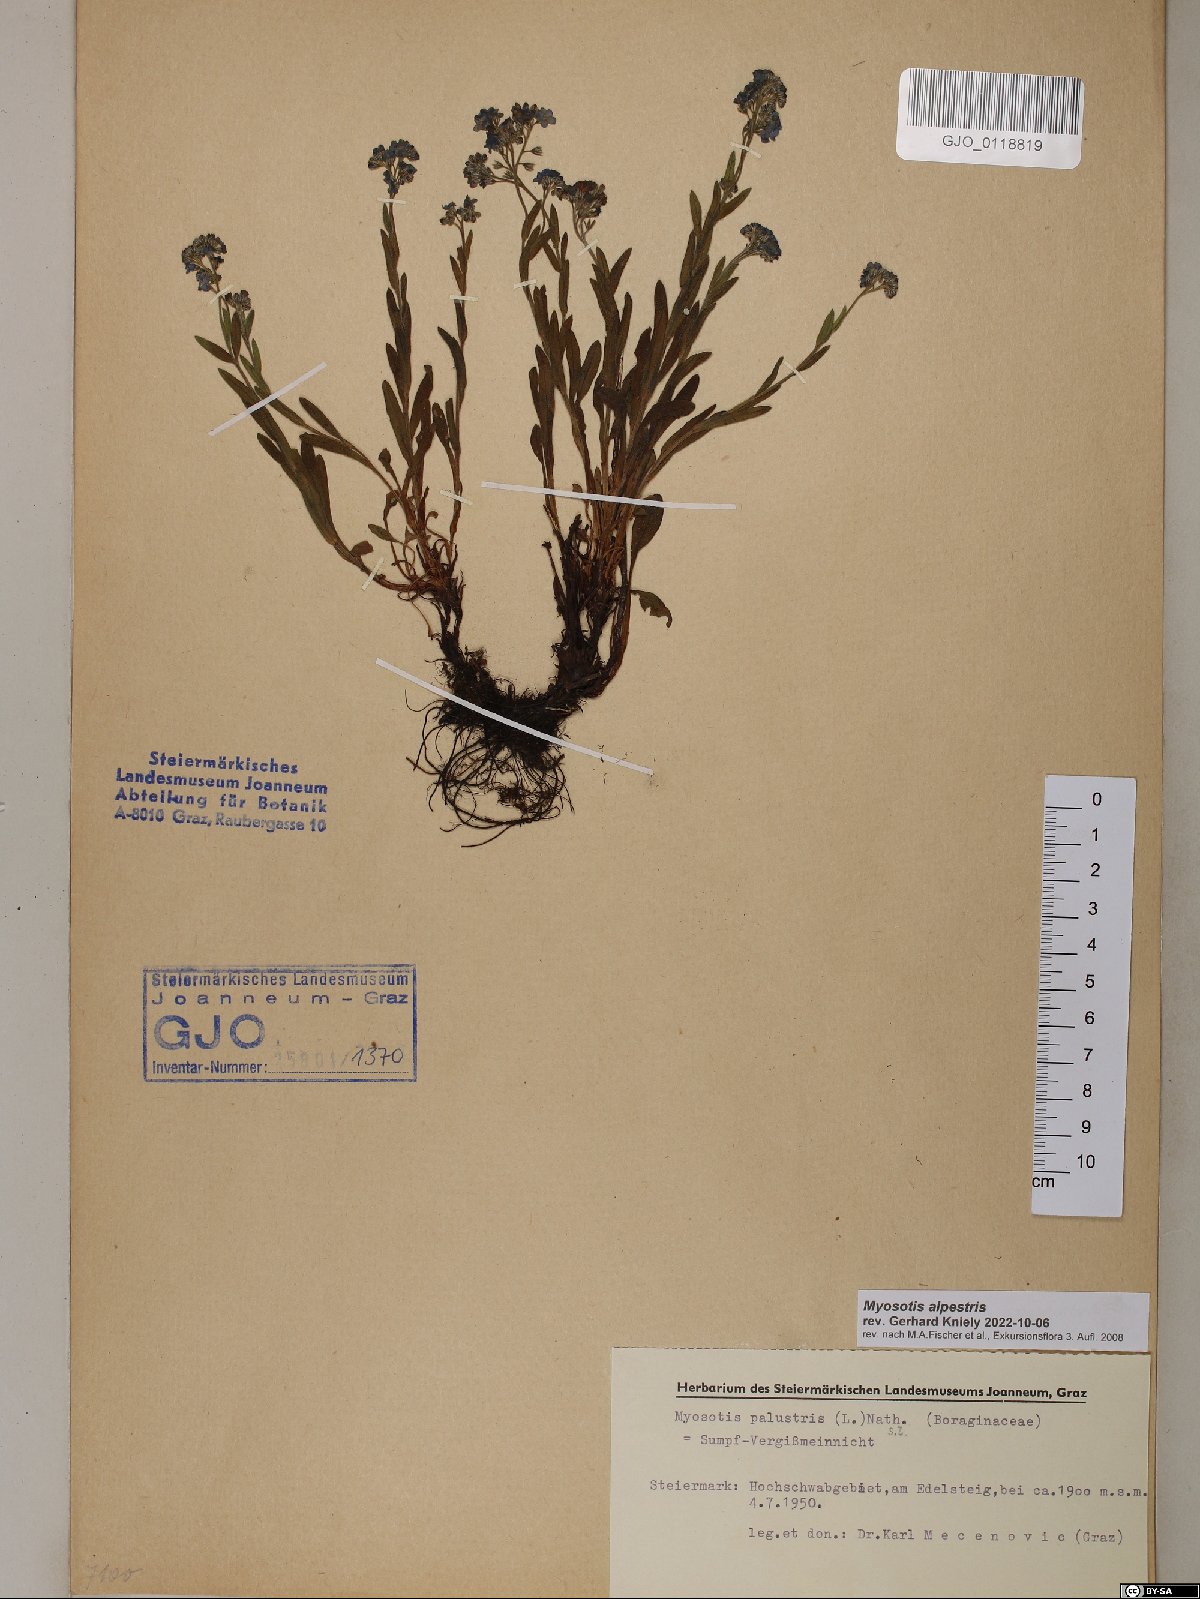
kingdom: Plantae
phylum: Tracheophyta
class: Magnoliopsida
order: Boraginales
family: Boraginaceae
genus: Myosotis
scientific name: Myosotis alpestris
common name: Alpine forget-me-not
